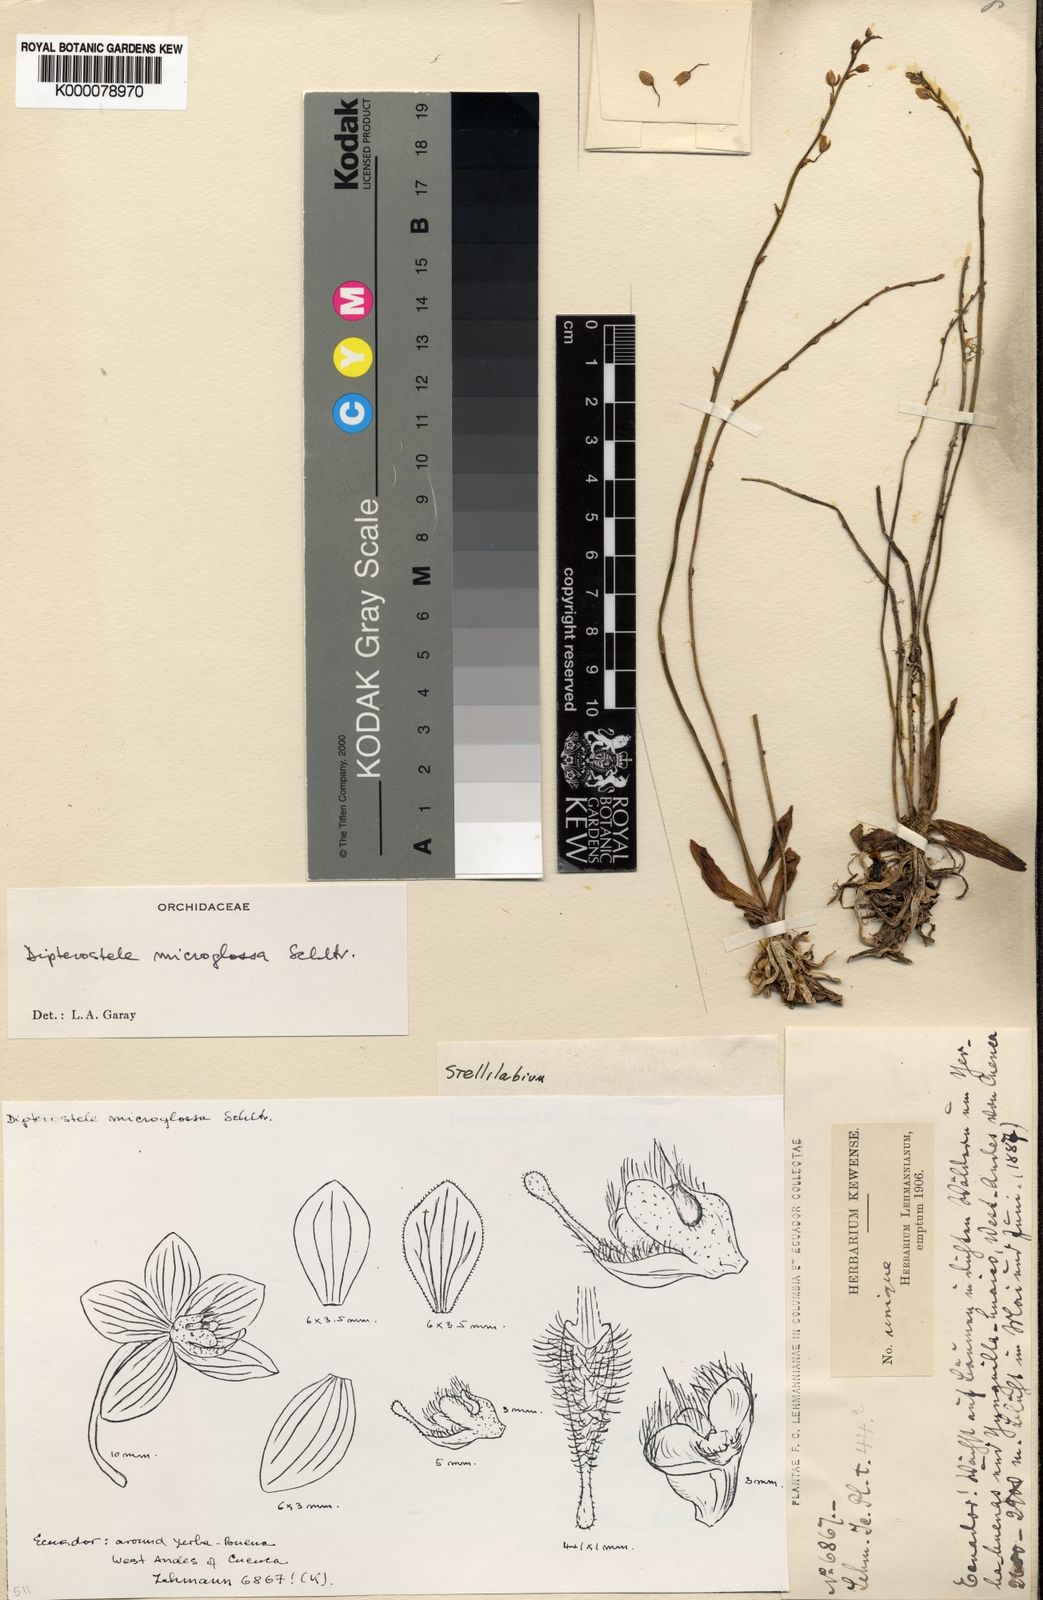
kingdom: Plantae
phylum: Tracheophyta
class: Liliopsida
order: Asparagales
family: Orchidaceae
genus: Telipogon
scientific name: Telipogon microglossus
